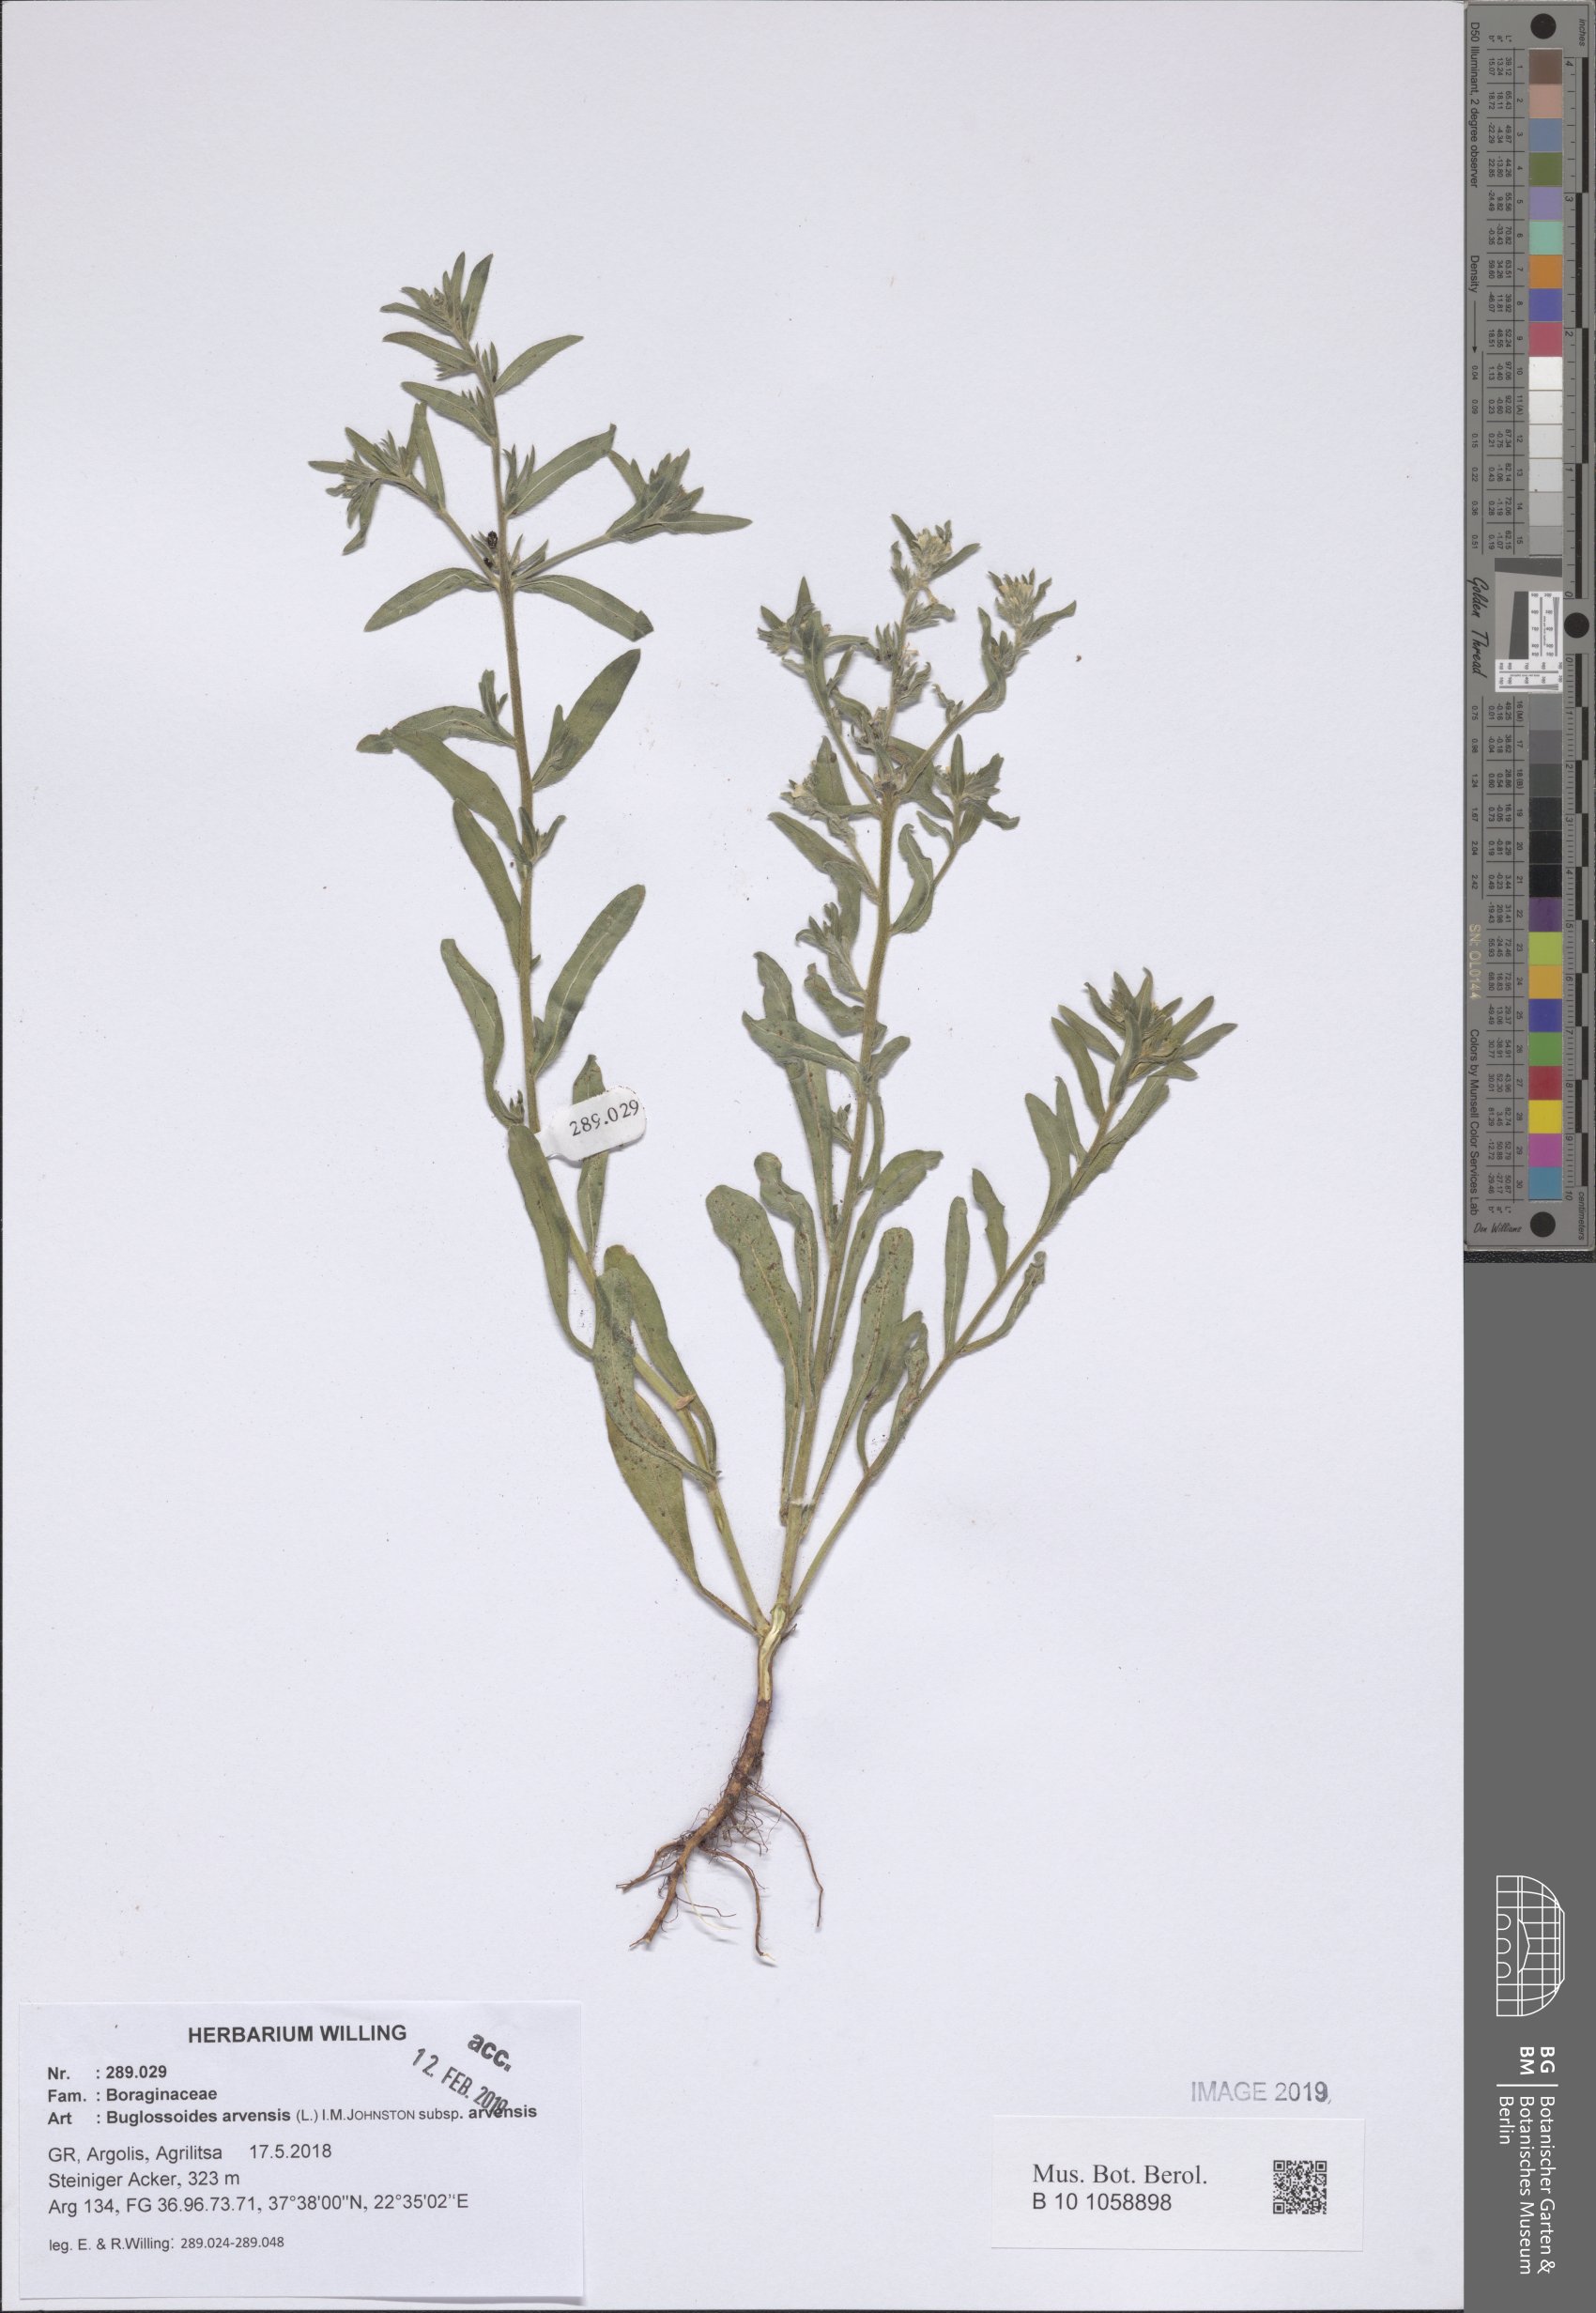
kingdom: Plantae
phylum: Tracheophyta
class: Magnoliopsida
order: Boraginales
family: Boraginaceae
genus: Buglossoides
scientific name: Buglossoides arvensis
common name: Corn gromwell
